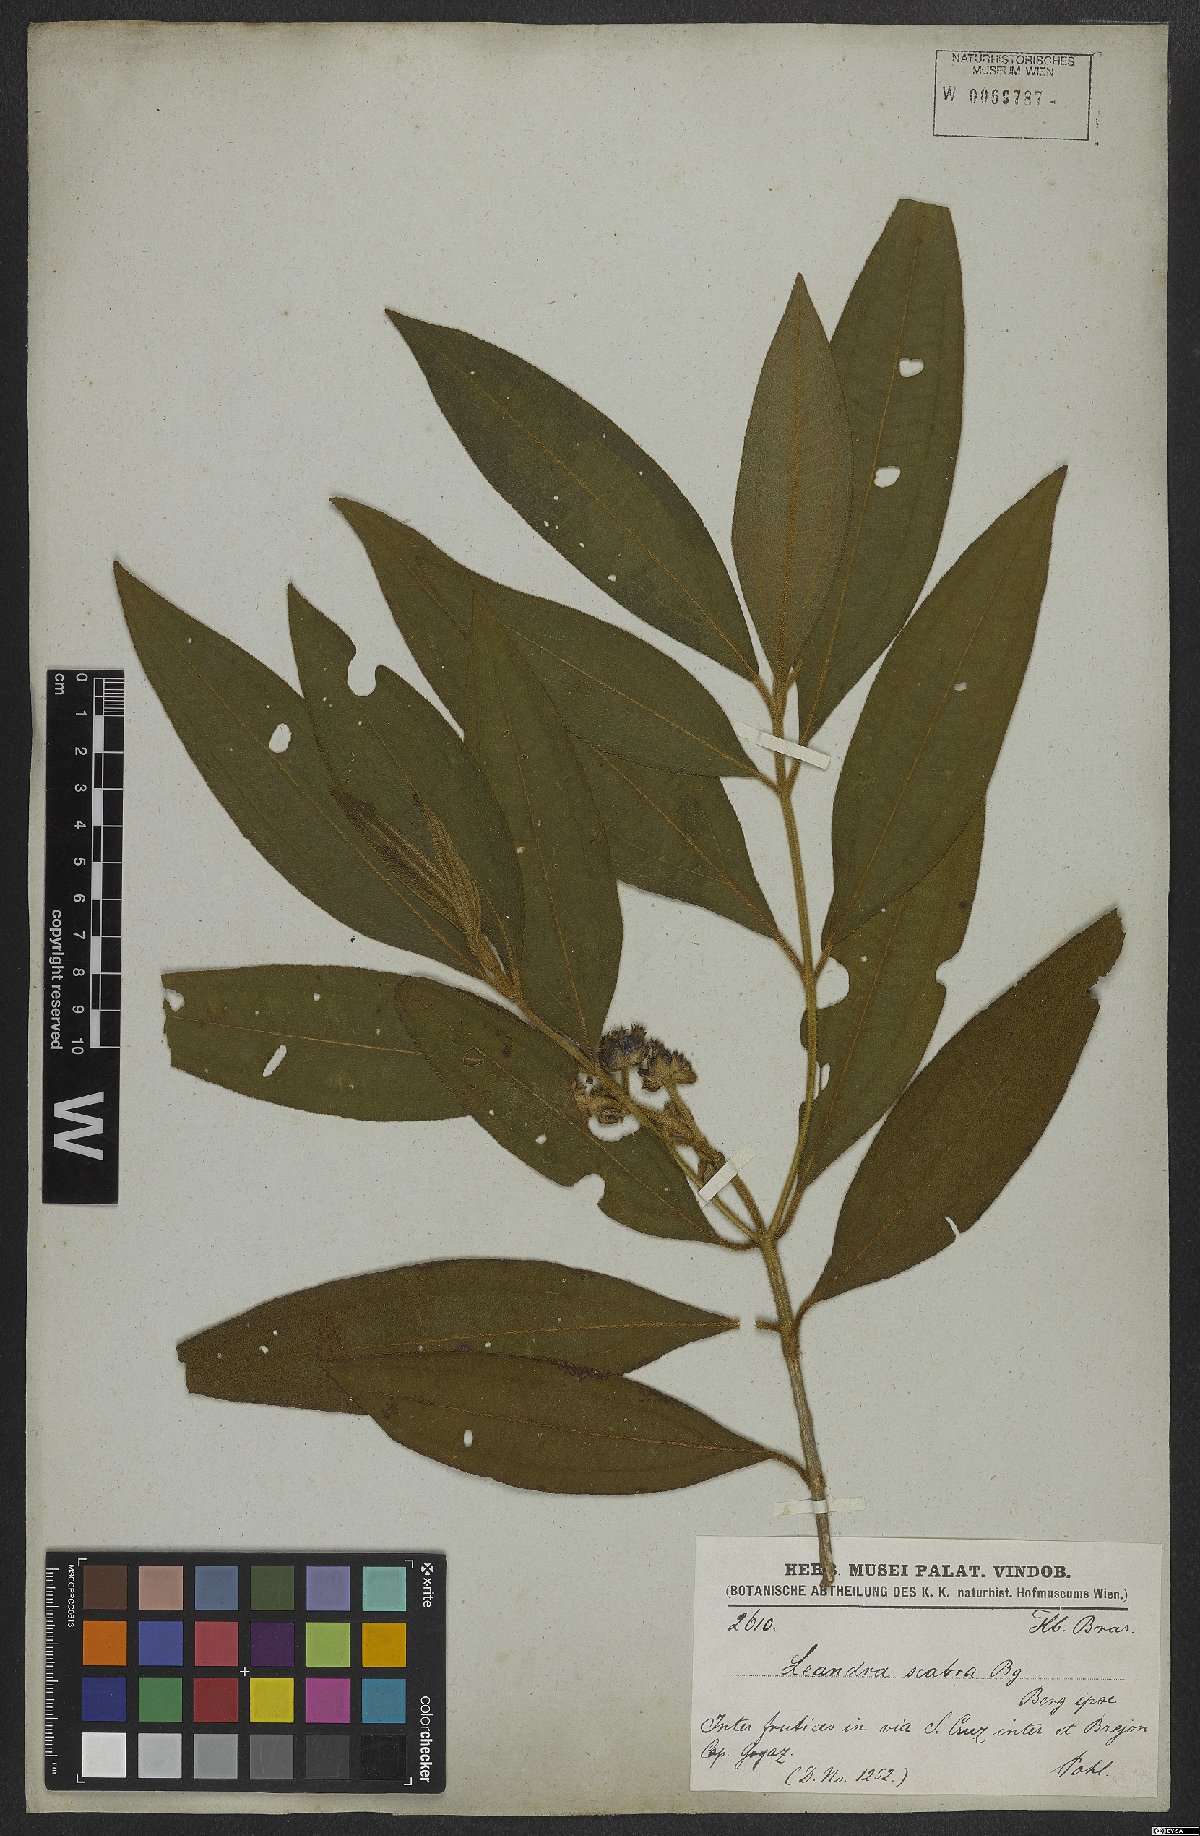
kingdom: Plantae
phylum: Tracheophyta
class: Magnoliopsida
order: Myrtales
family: Melastomataceae
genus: Miconia
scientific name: Miconia melastomoides
